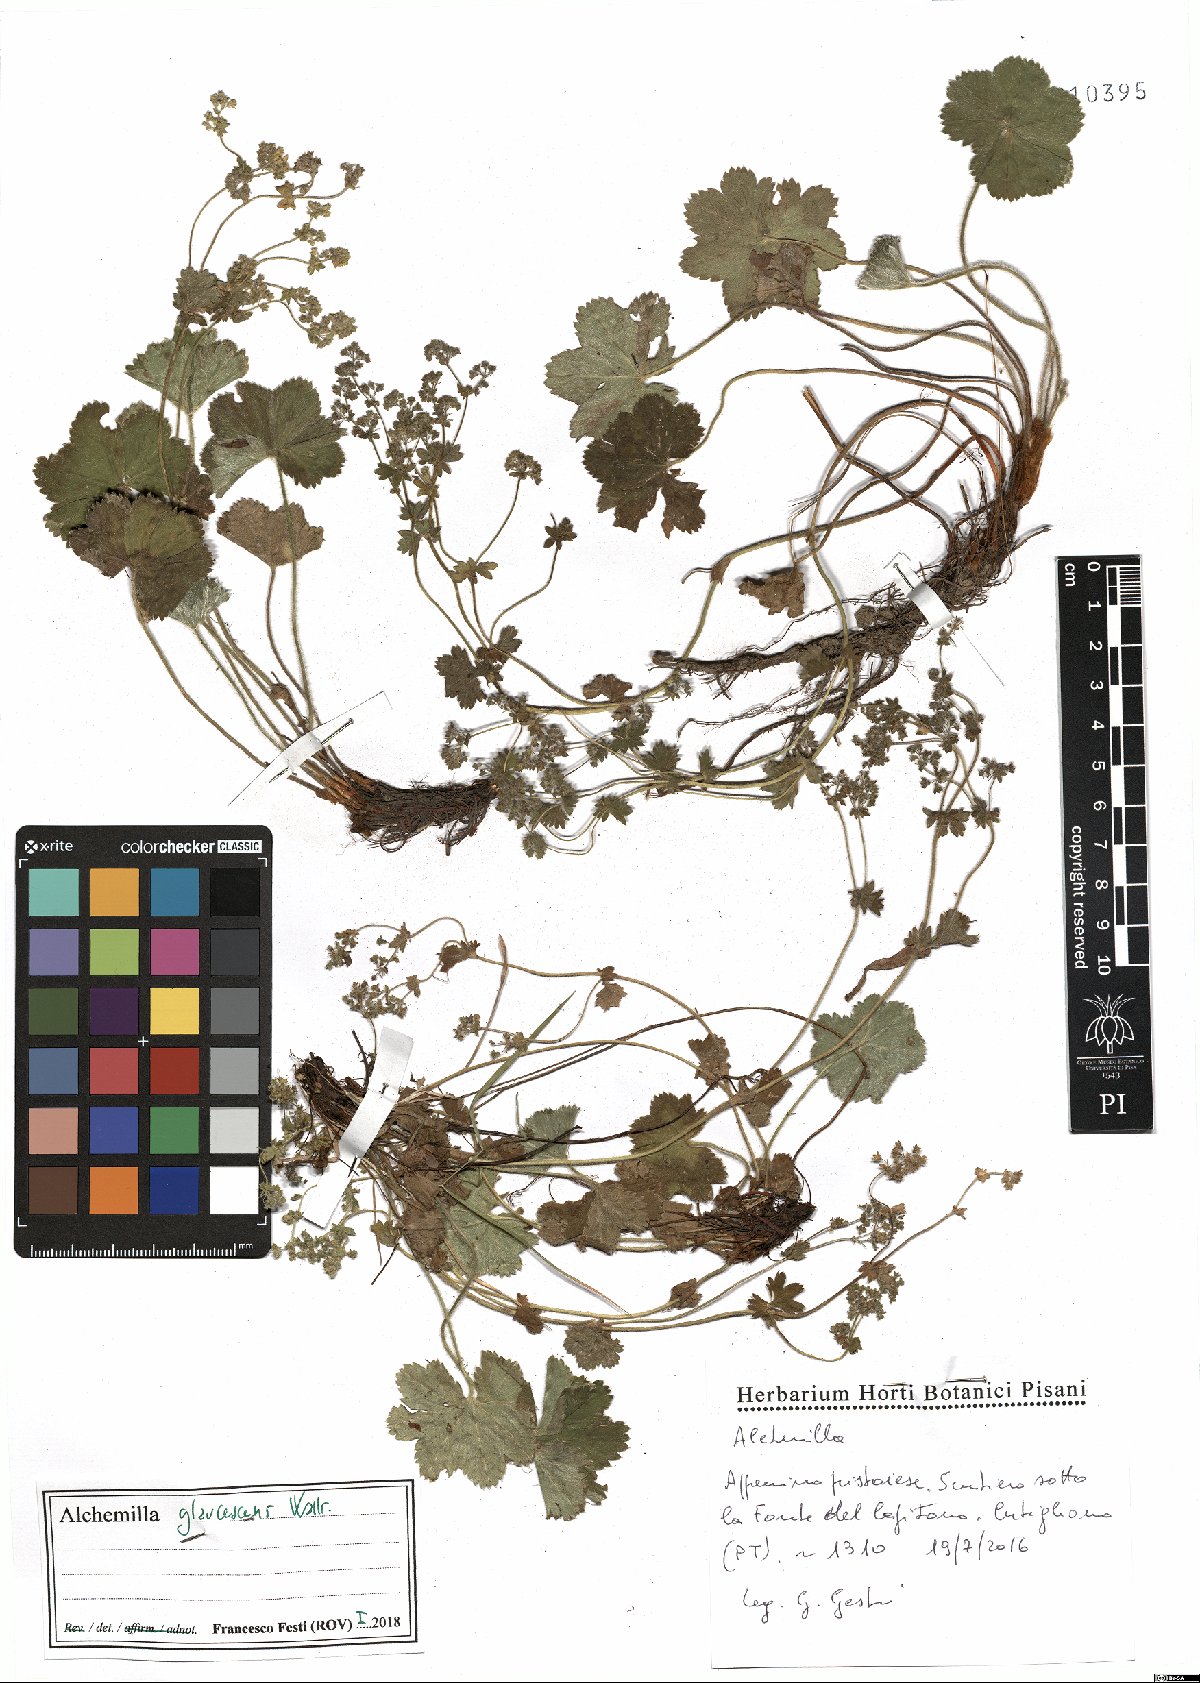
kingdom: Plantae
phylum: Tracheophyta
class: Magnoliopsida
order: Rosales
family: Rosaceae
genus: Alchemilla
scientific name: Alchemilla glaucescens
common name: Silky lady's mantle
